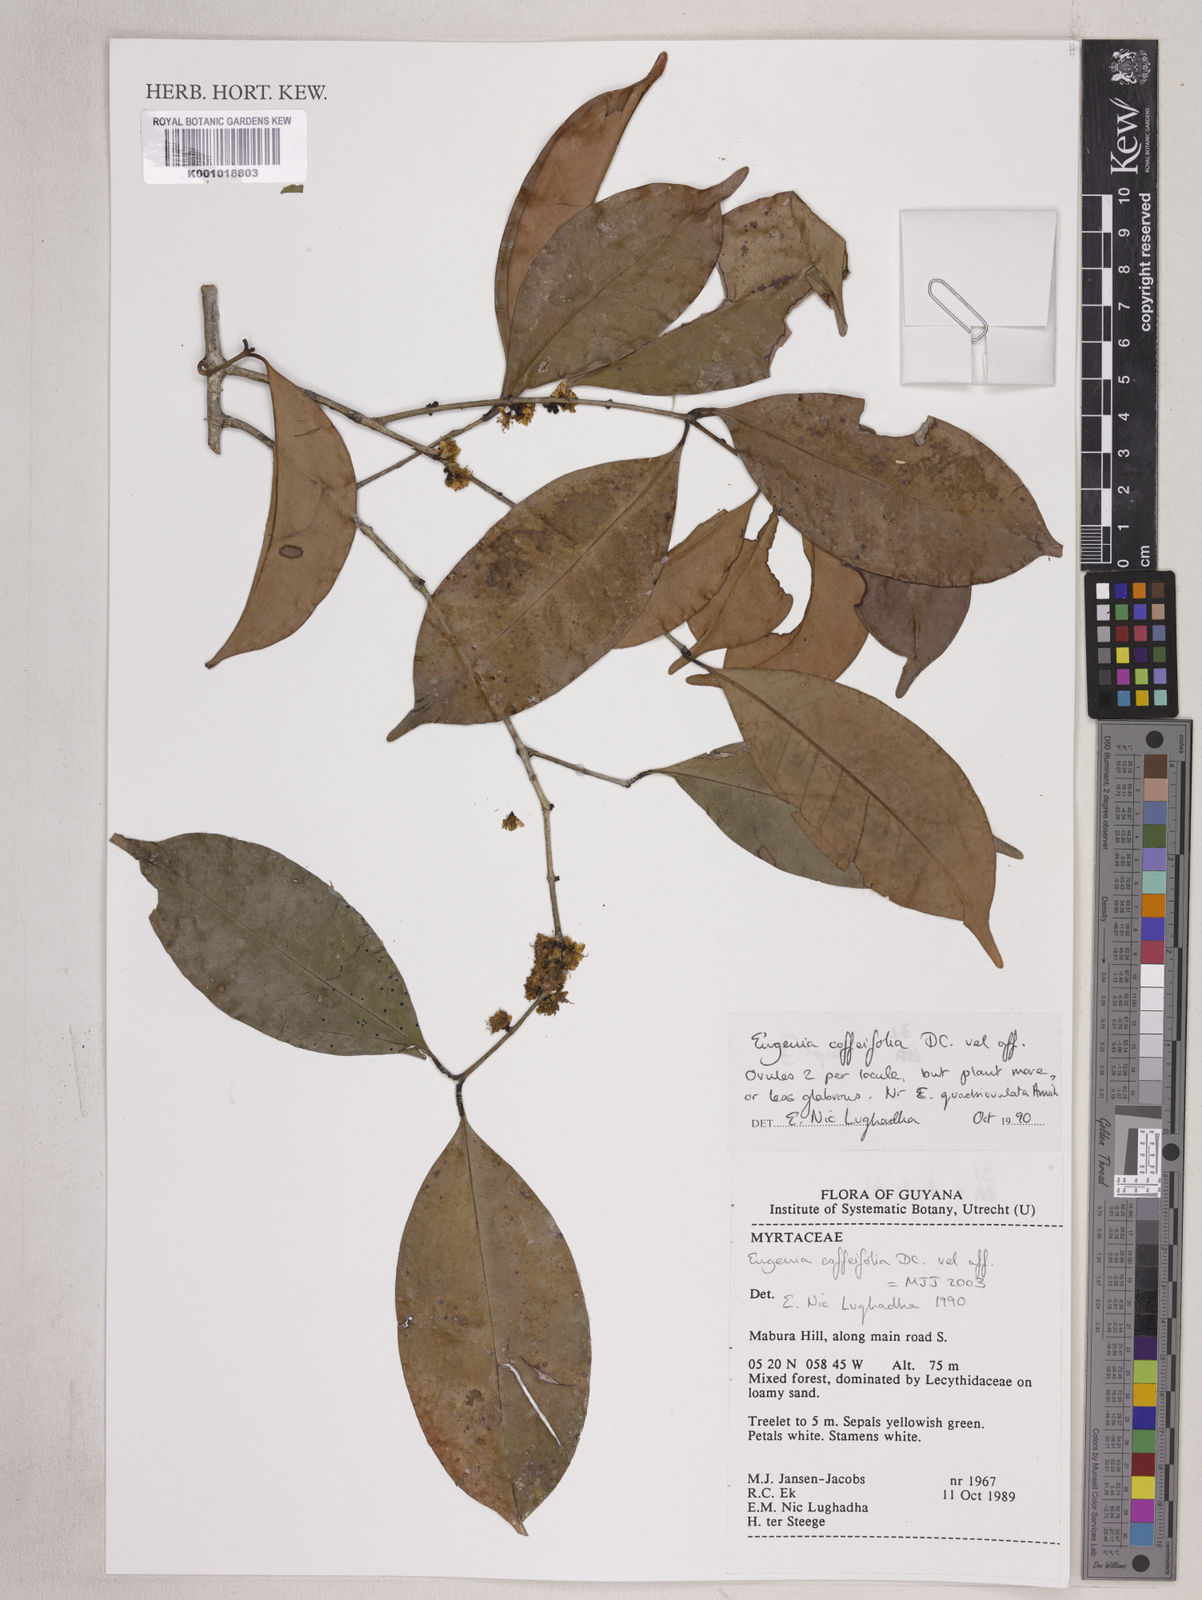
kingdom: Plantae
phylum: Tracheophyta
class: Magnoliopsida
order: Myrtales
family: Myrtaceae
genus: Eugenia
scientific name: Eugenia coffeifolia
